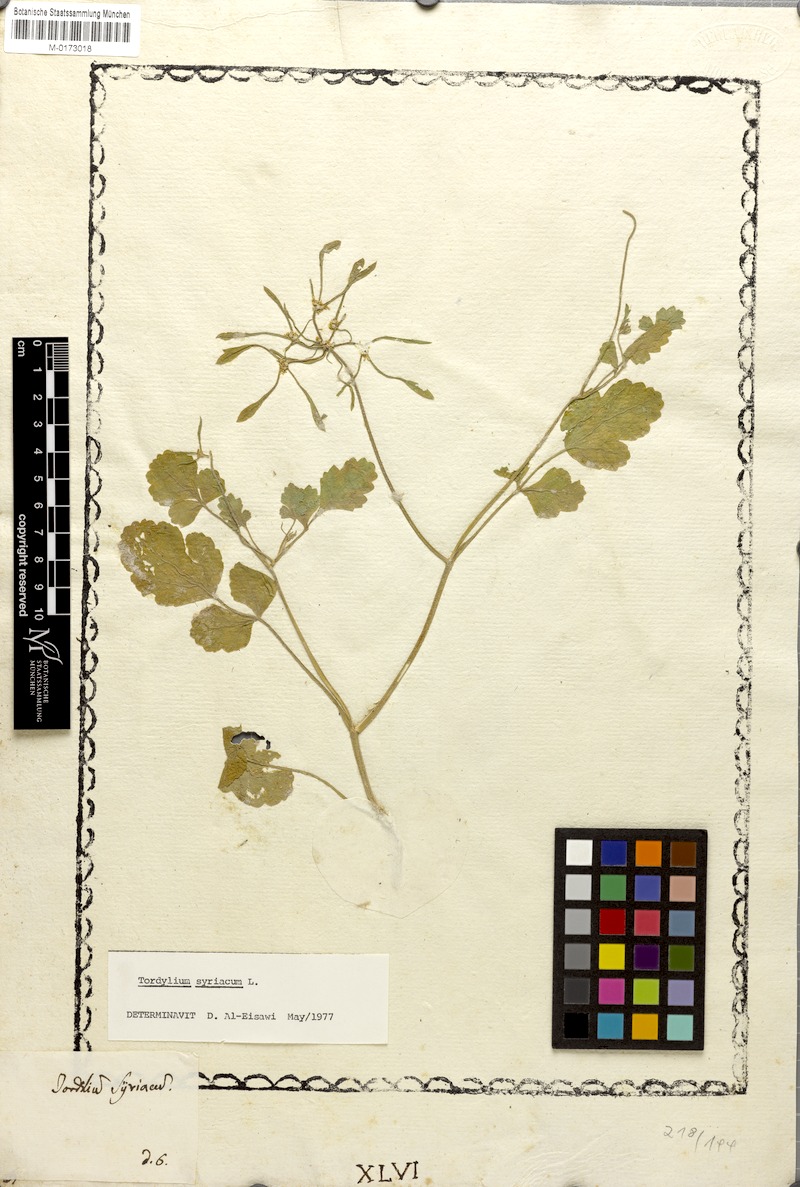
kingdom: Plantae
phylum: Tracheophyta
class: Magnoliopsida
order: Apiales
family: Apiaceae
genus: Tordylium
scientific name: Tordylium syriacum
